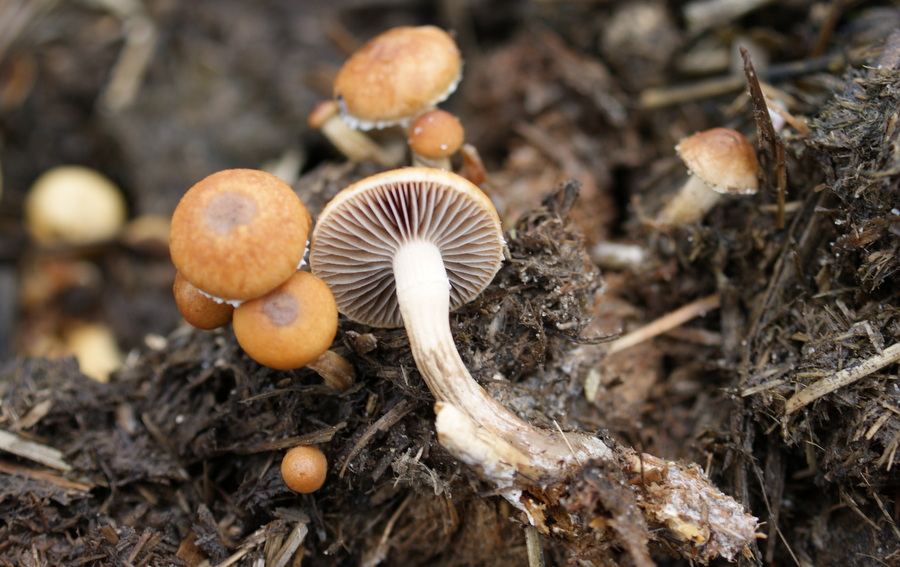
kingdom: Fungi
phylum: Basidiomycota
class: Agaricomycetes
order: Agaricales
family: Strophariaceae
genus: Deconica
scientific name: Deconica merdaria
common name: møg-stråhat
